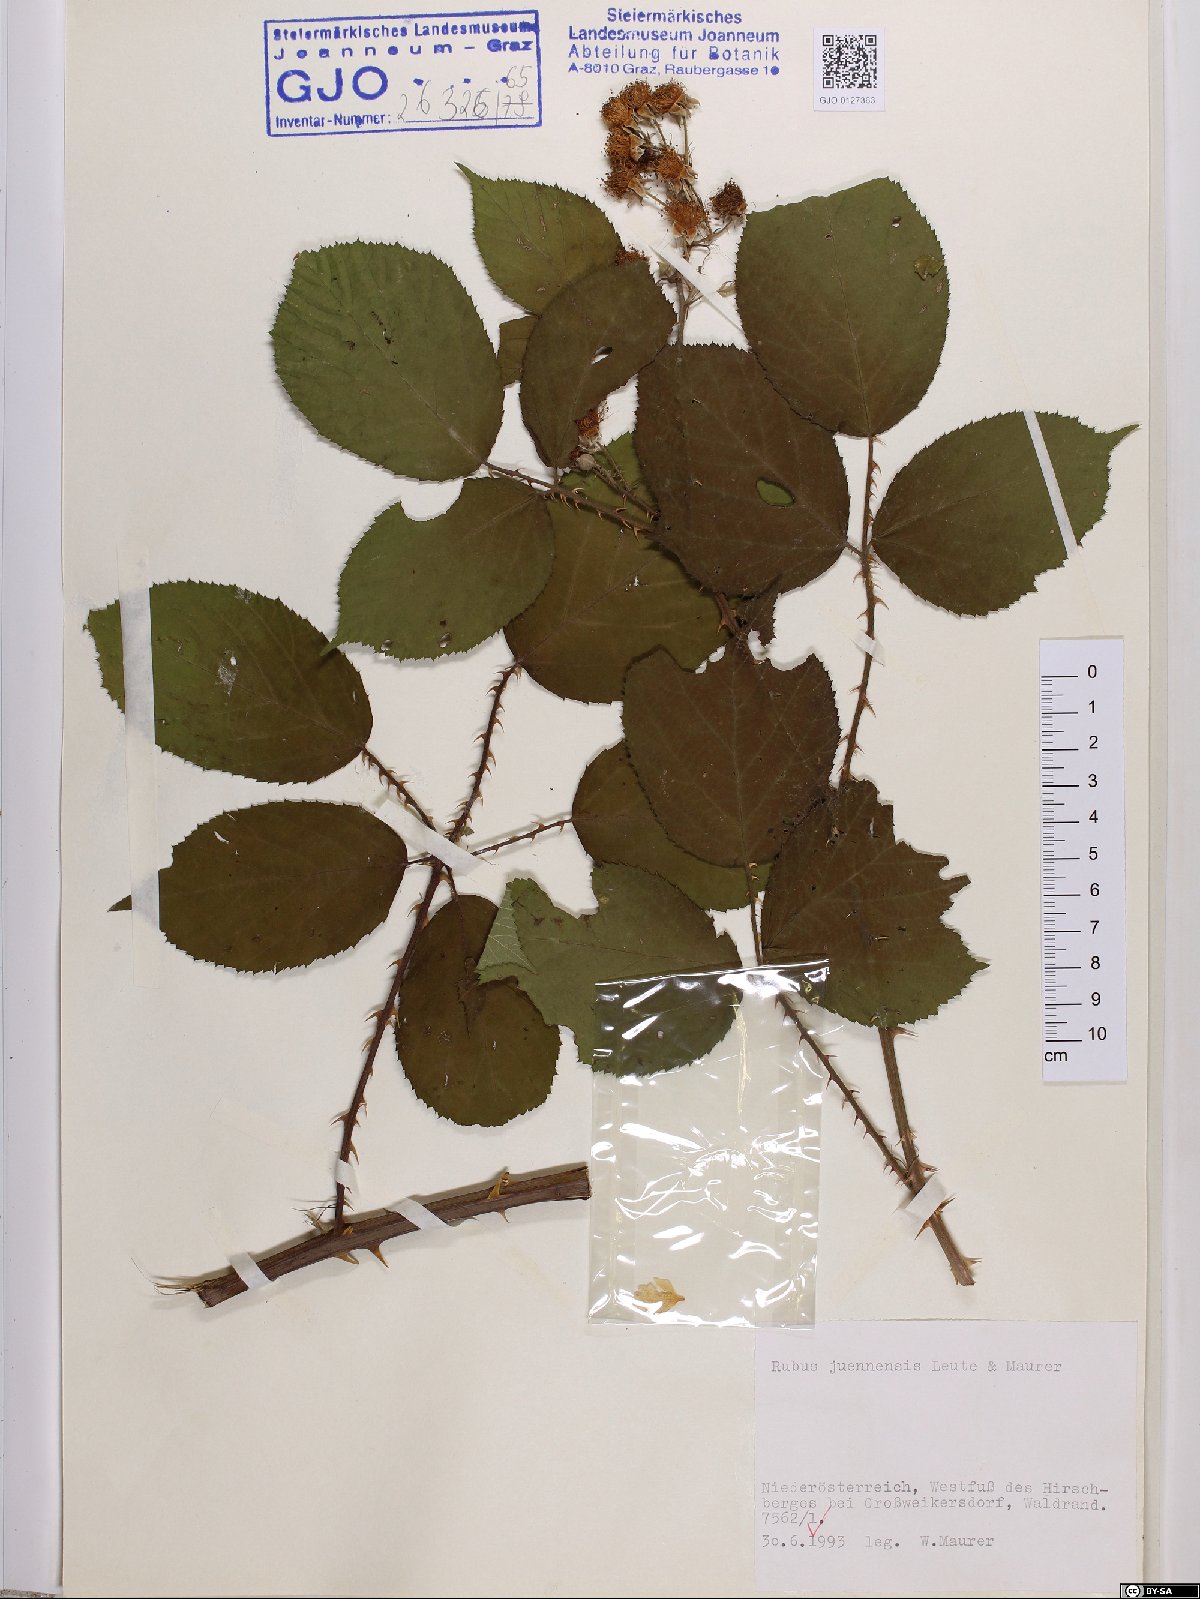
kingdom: Plantae
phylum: Tracheophyta
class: Magnoliopsida
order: Rosales
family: Rosaceae
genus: Rubus
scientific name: Rubus juennensis
